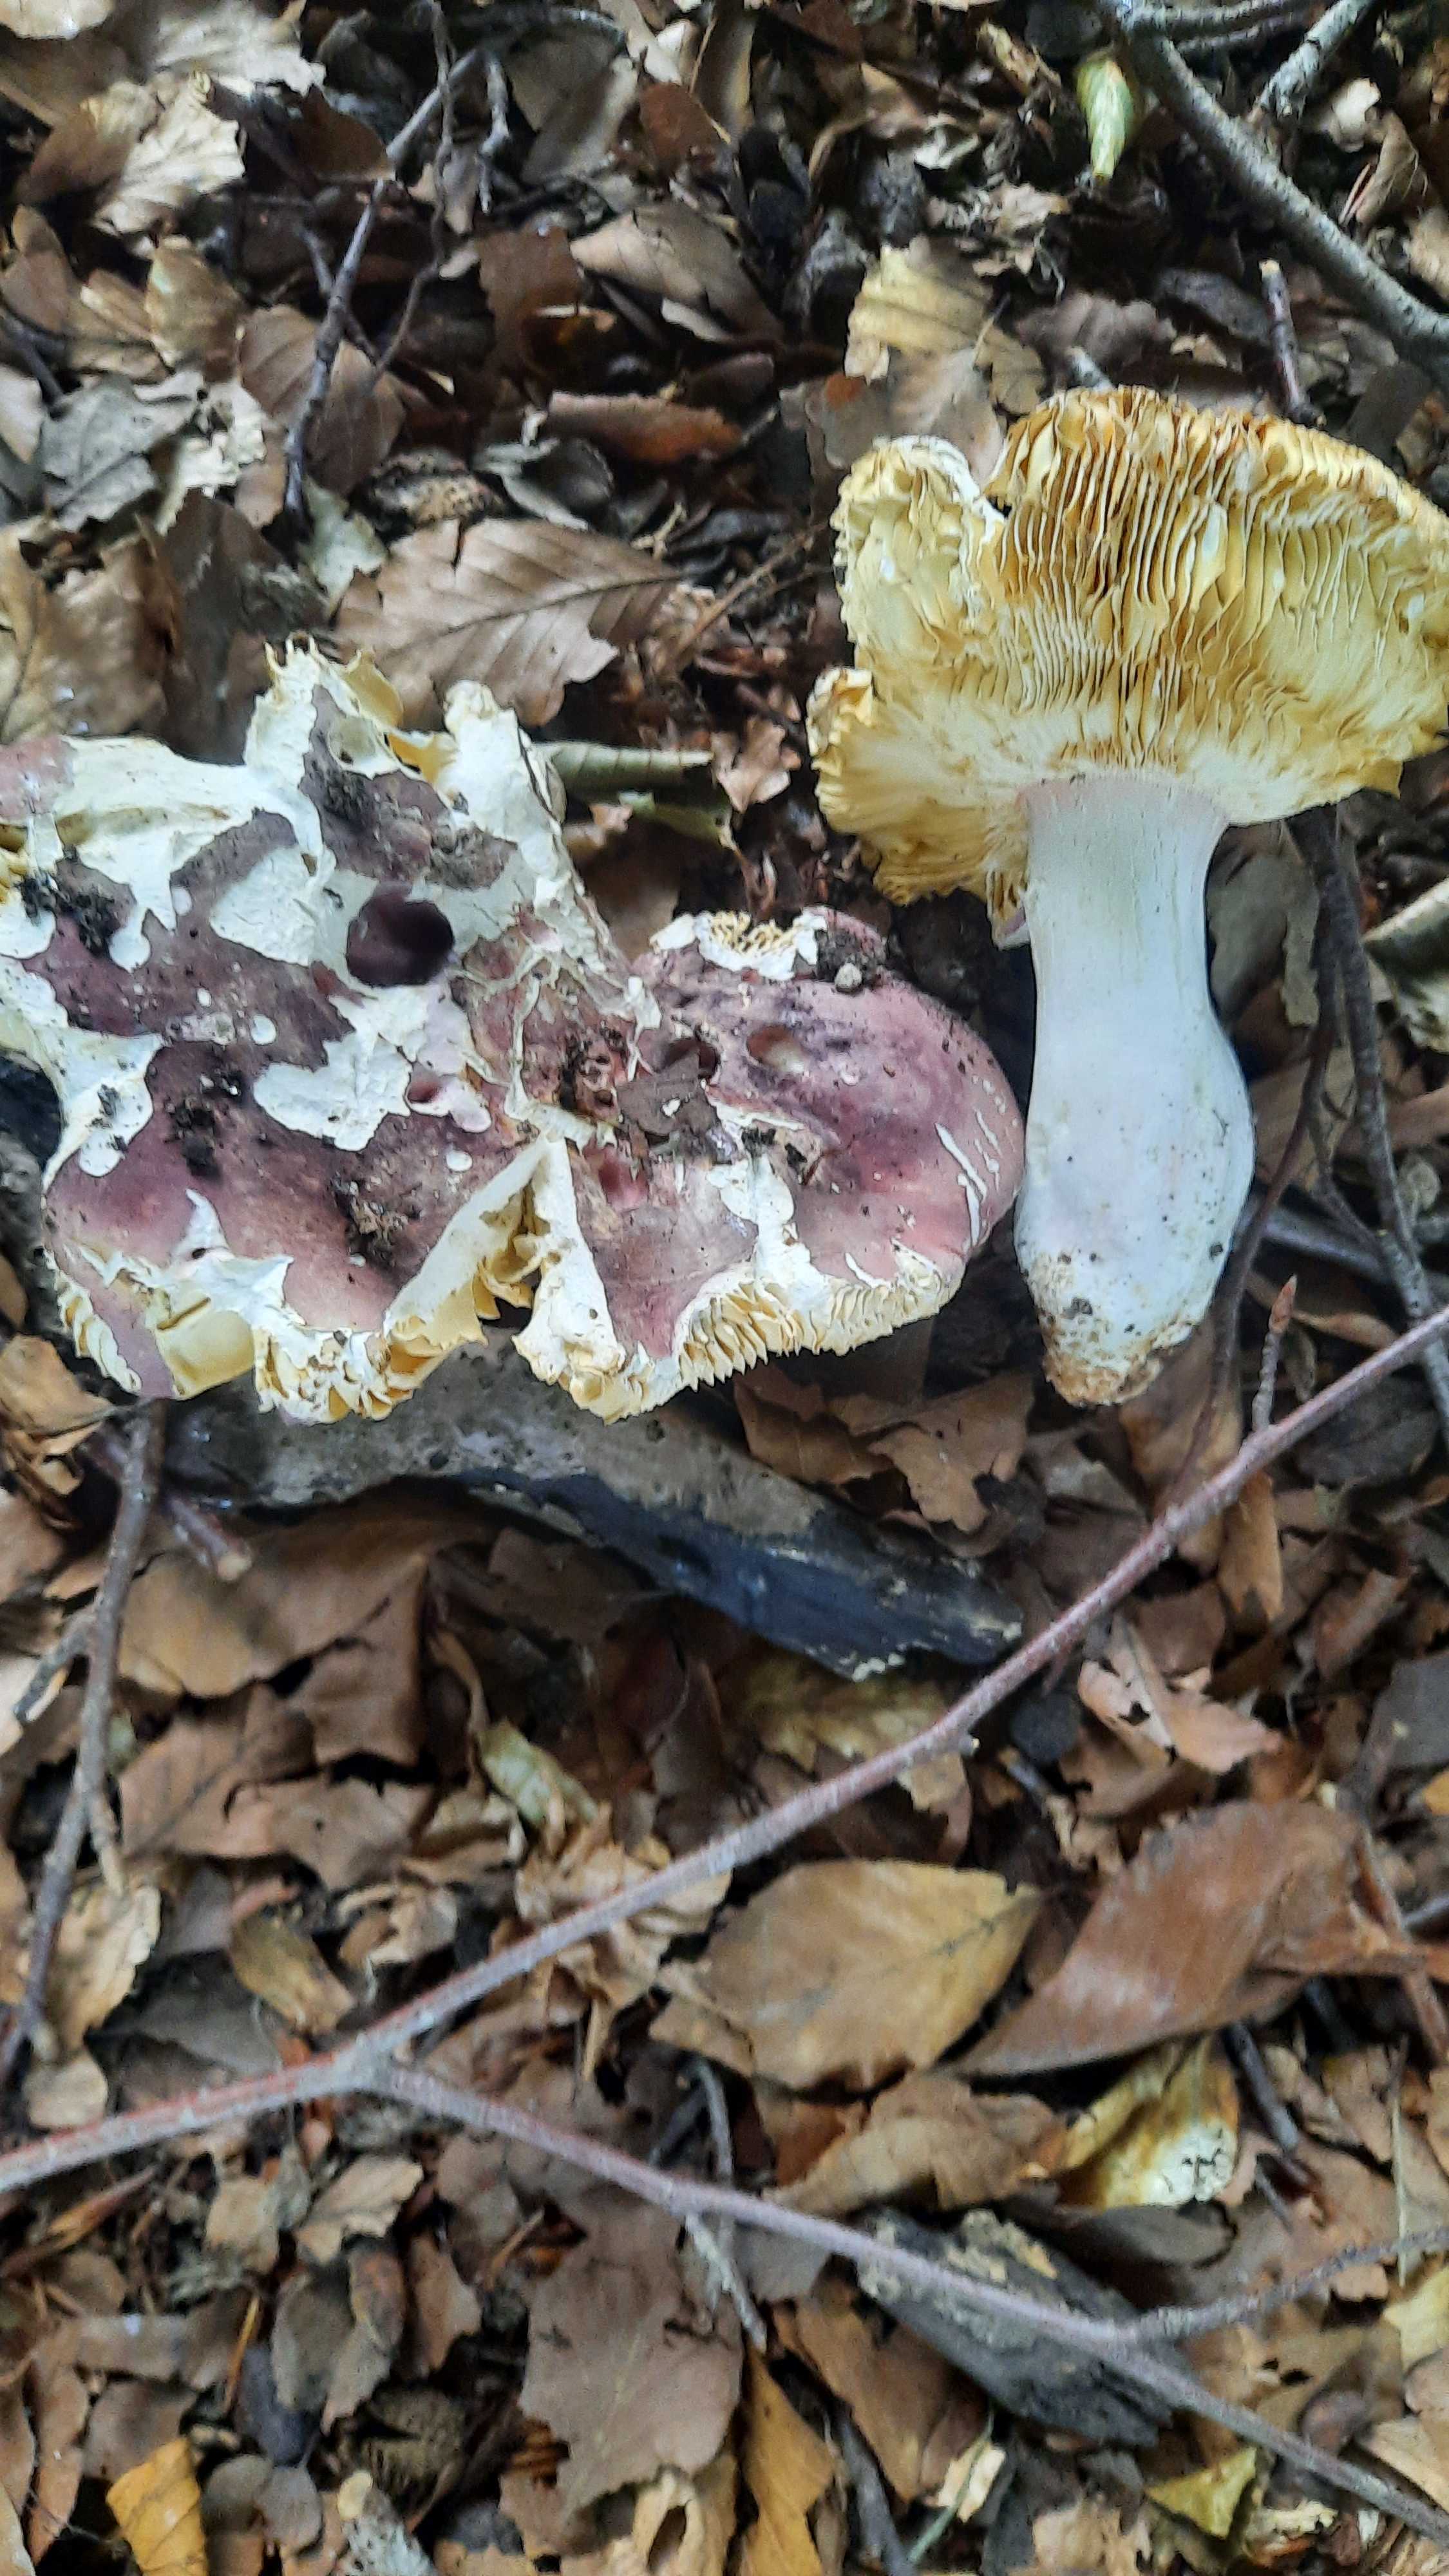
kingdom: Fungi
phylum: Basidiomycota
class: Agaricomycetes
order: Russulales
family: Russulaceae
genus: Russula
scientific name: Russula olivacea
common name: stor skørhat
